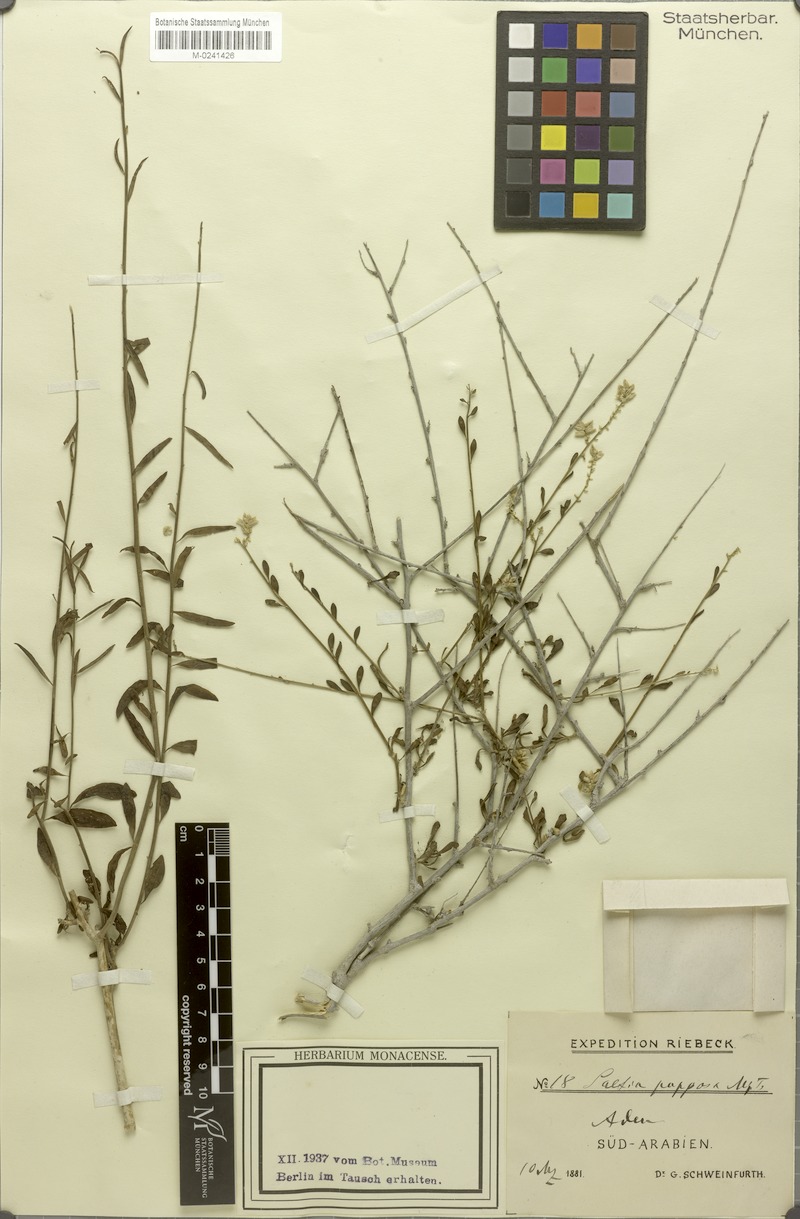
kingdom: Plantae
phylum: Tracheophyta
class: Magnoliopsida
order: Caryophyllales
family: Amaranthaceae
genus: Saltia
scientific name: Saltia papposa
